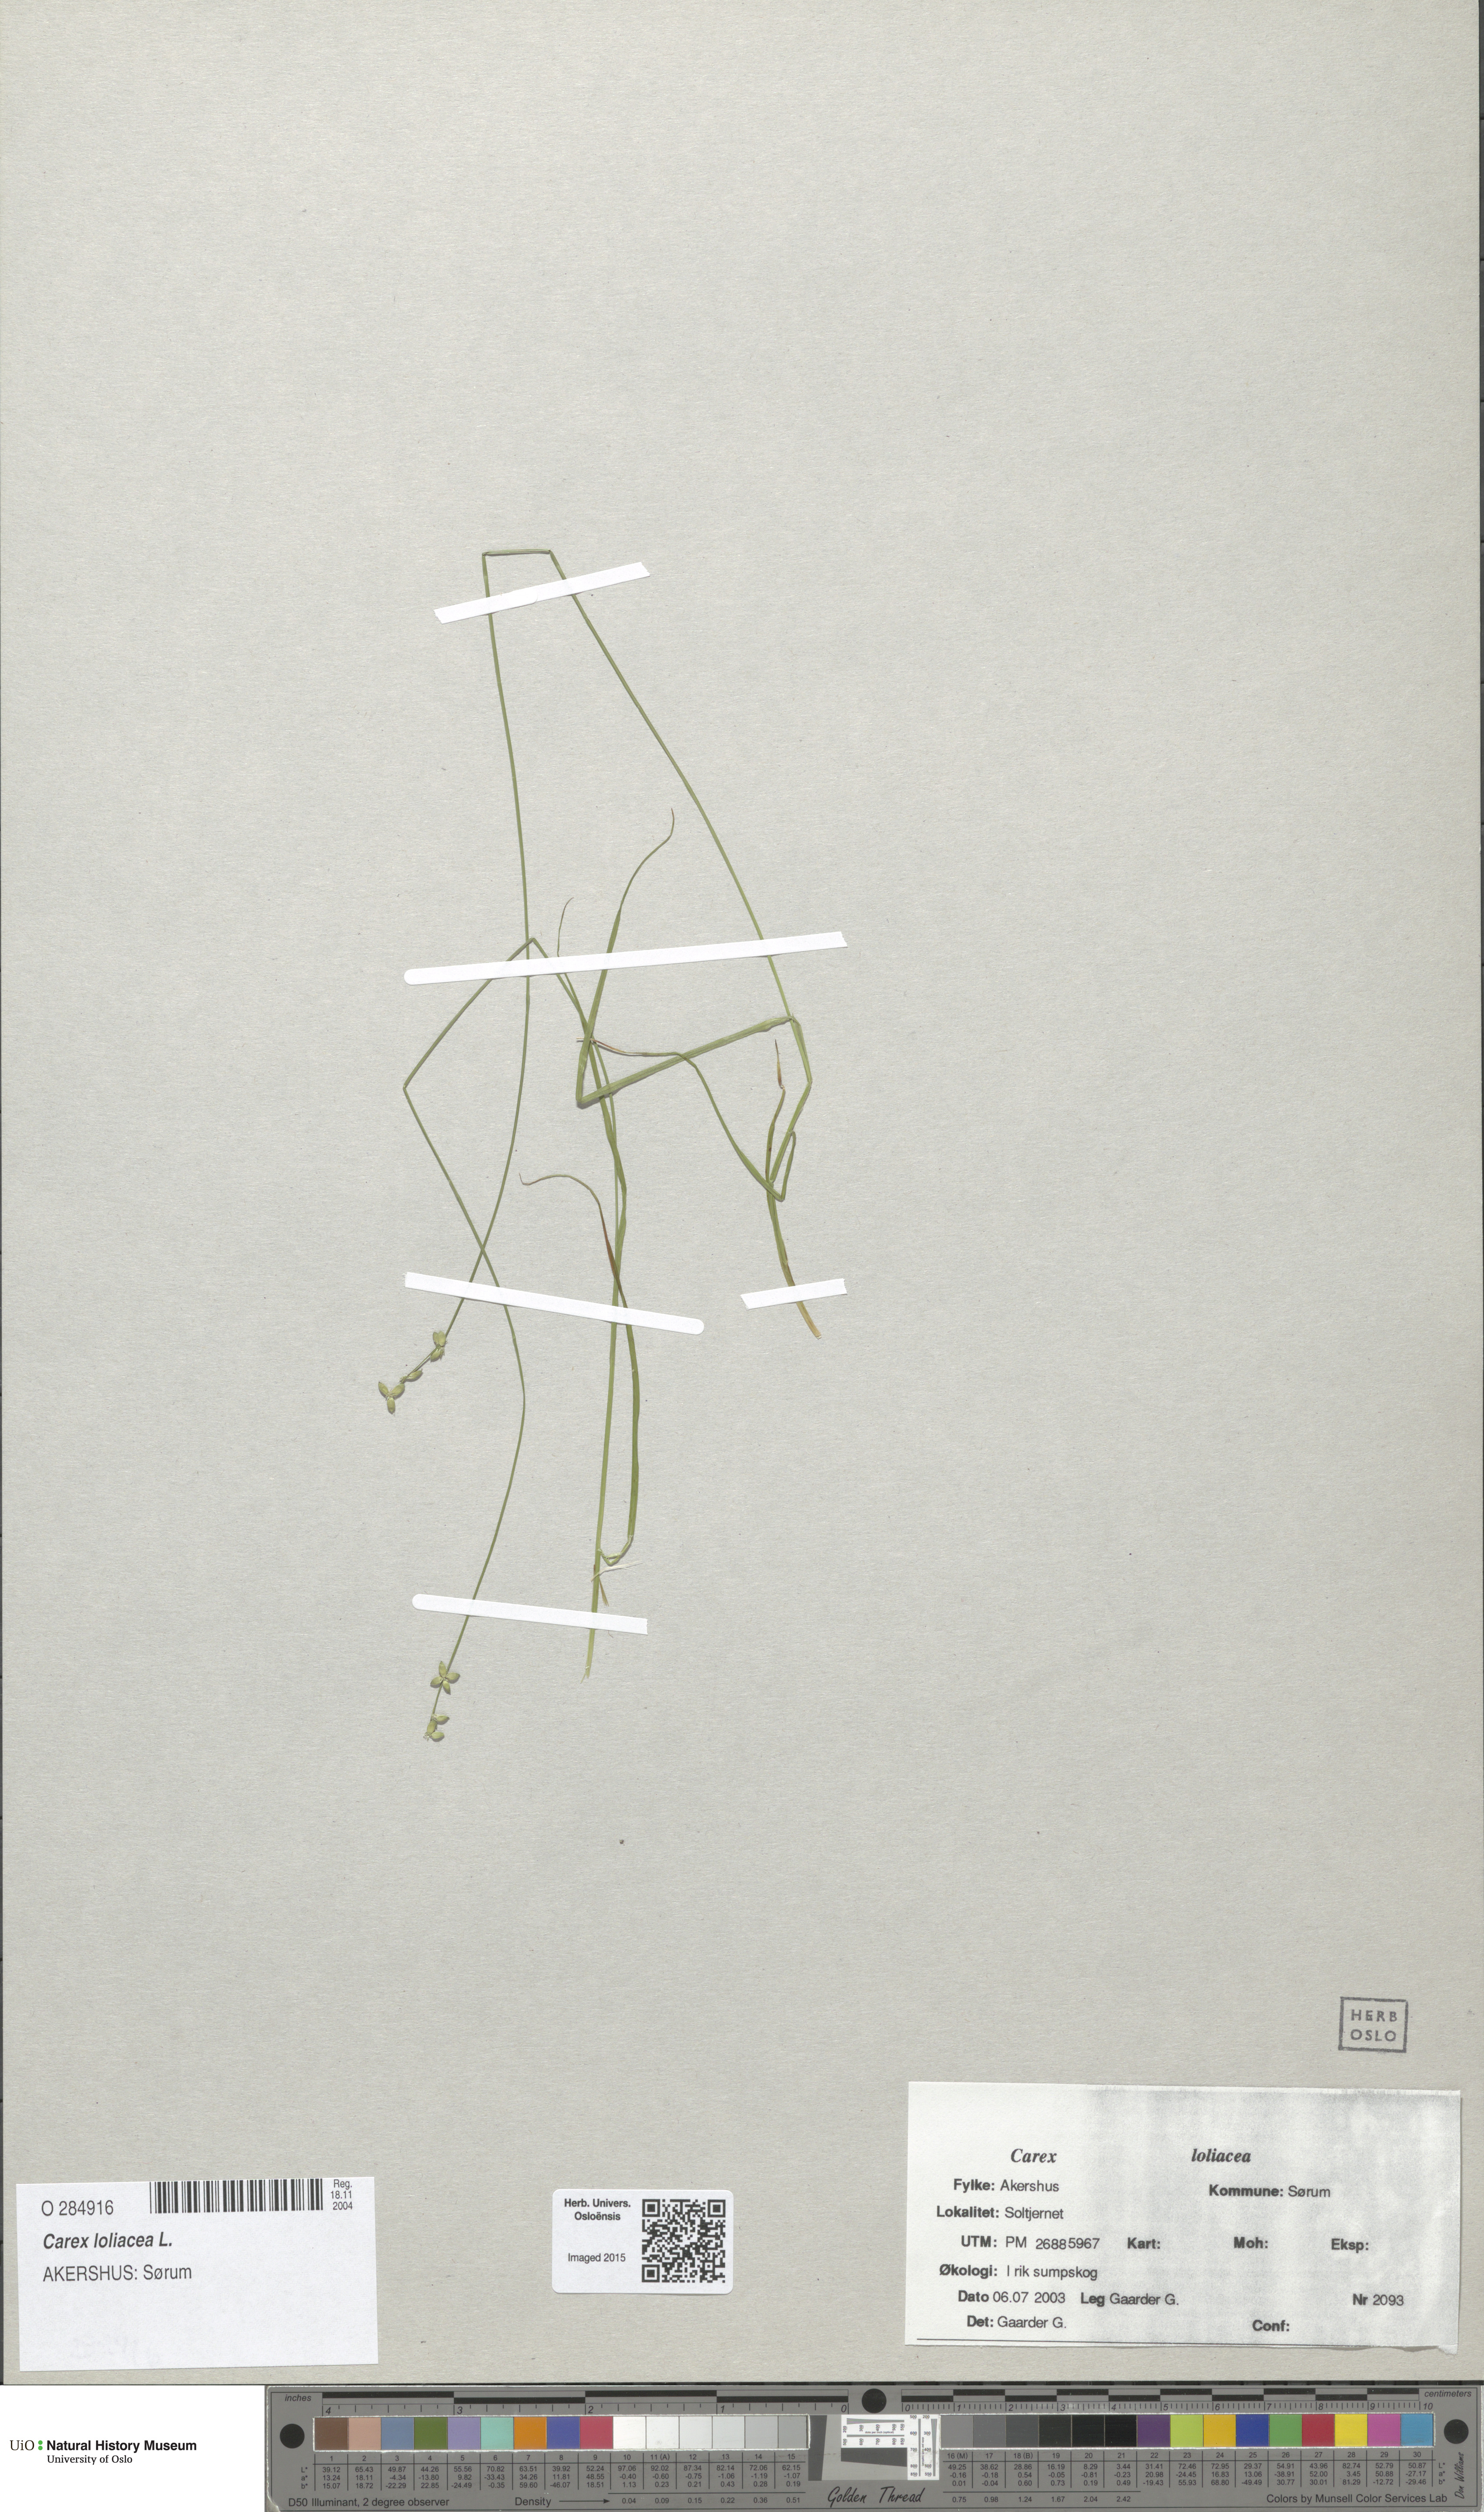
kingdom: Plantae
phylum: Tracheophyta
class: Liliopsida
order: Poales
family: Cyperaceae
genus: Carex
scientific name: Carex loliacea
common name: Ryegrass sedge
